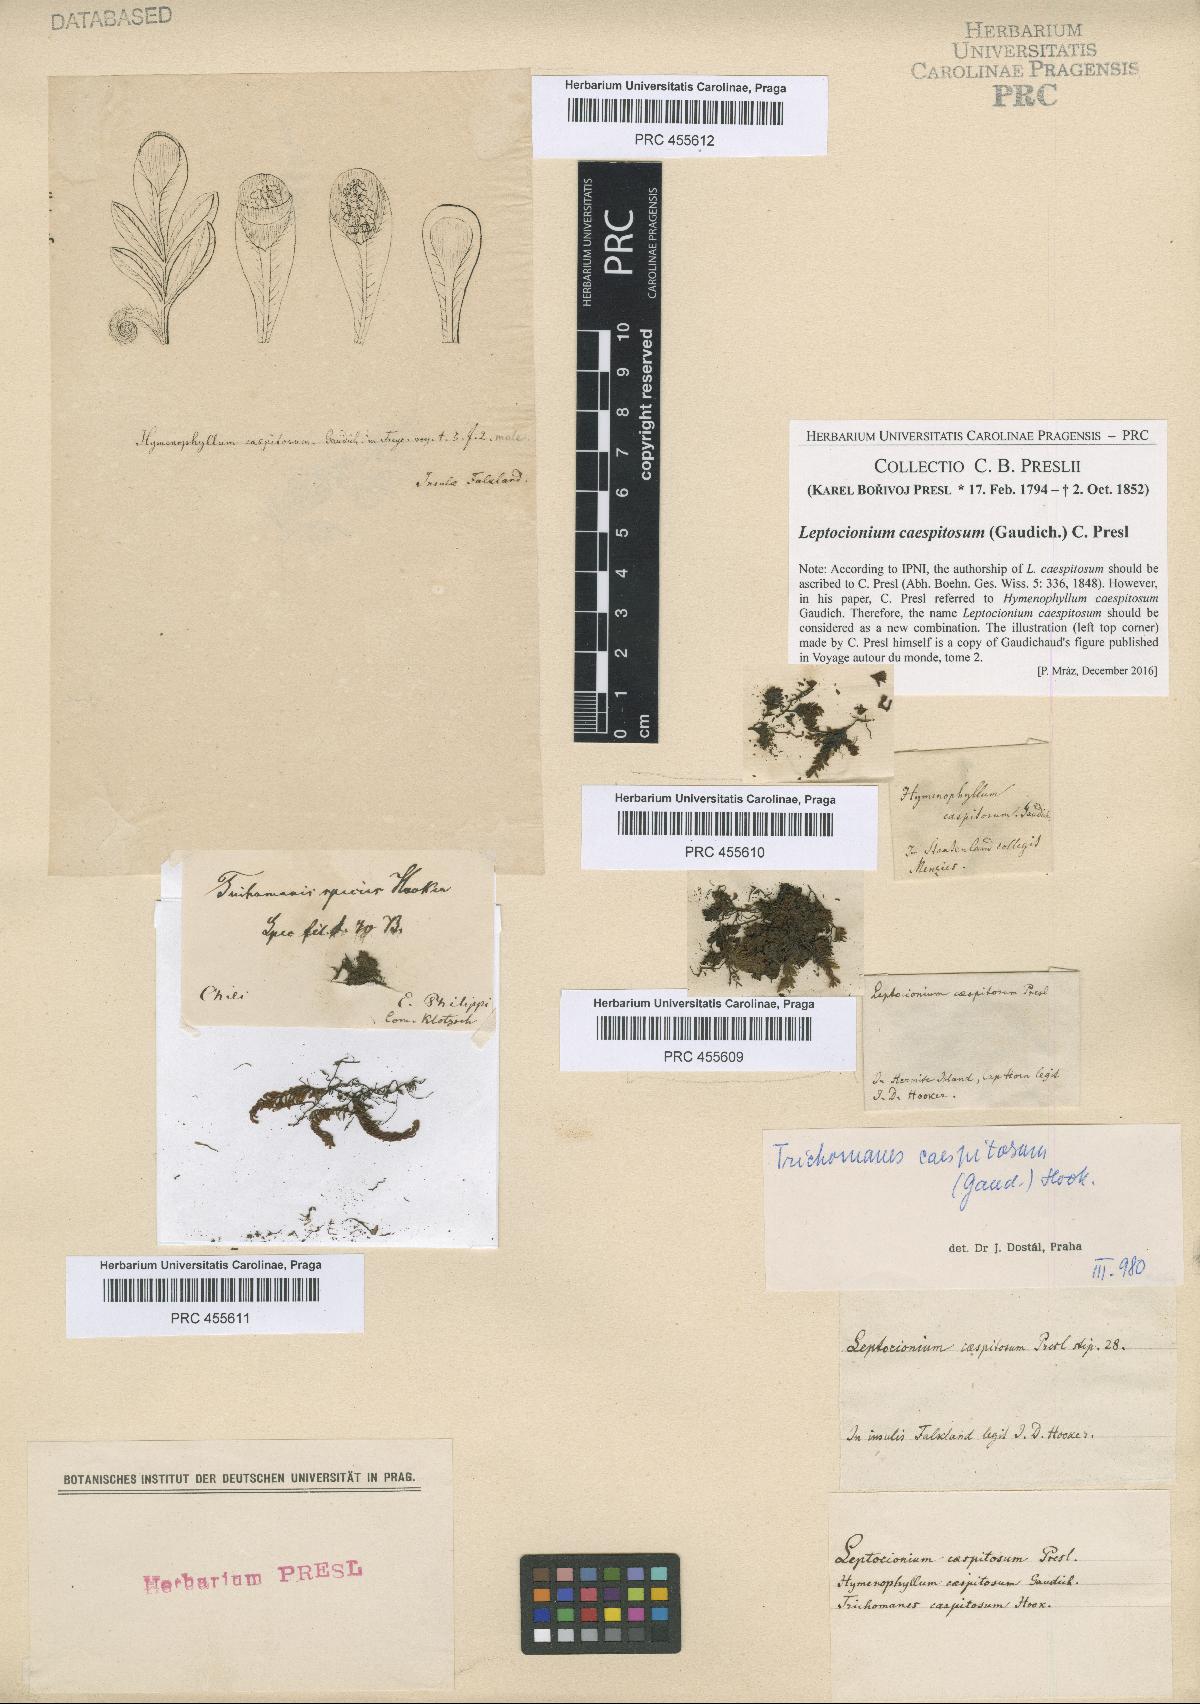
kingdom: Plantae
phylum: Tracheophyta
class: Polypodiopsida
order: Hymenophyllales
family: Hymenophyllaceae
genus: Hymenophyllum
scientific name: Hymenophyllum caespitosum
